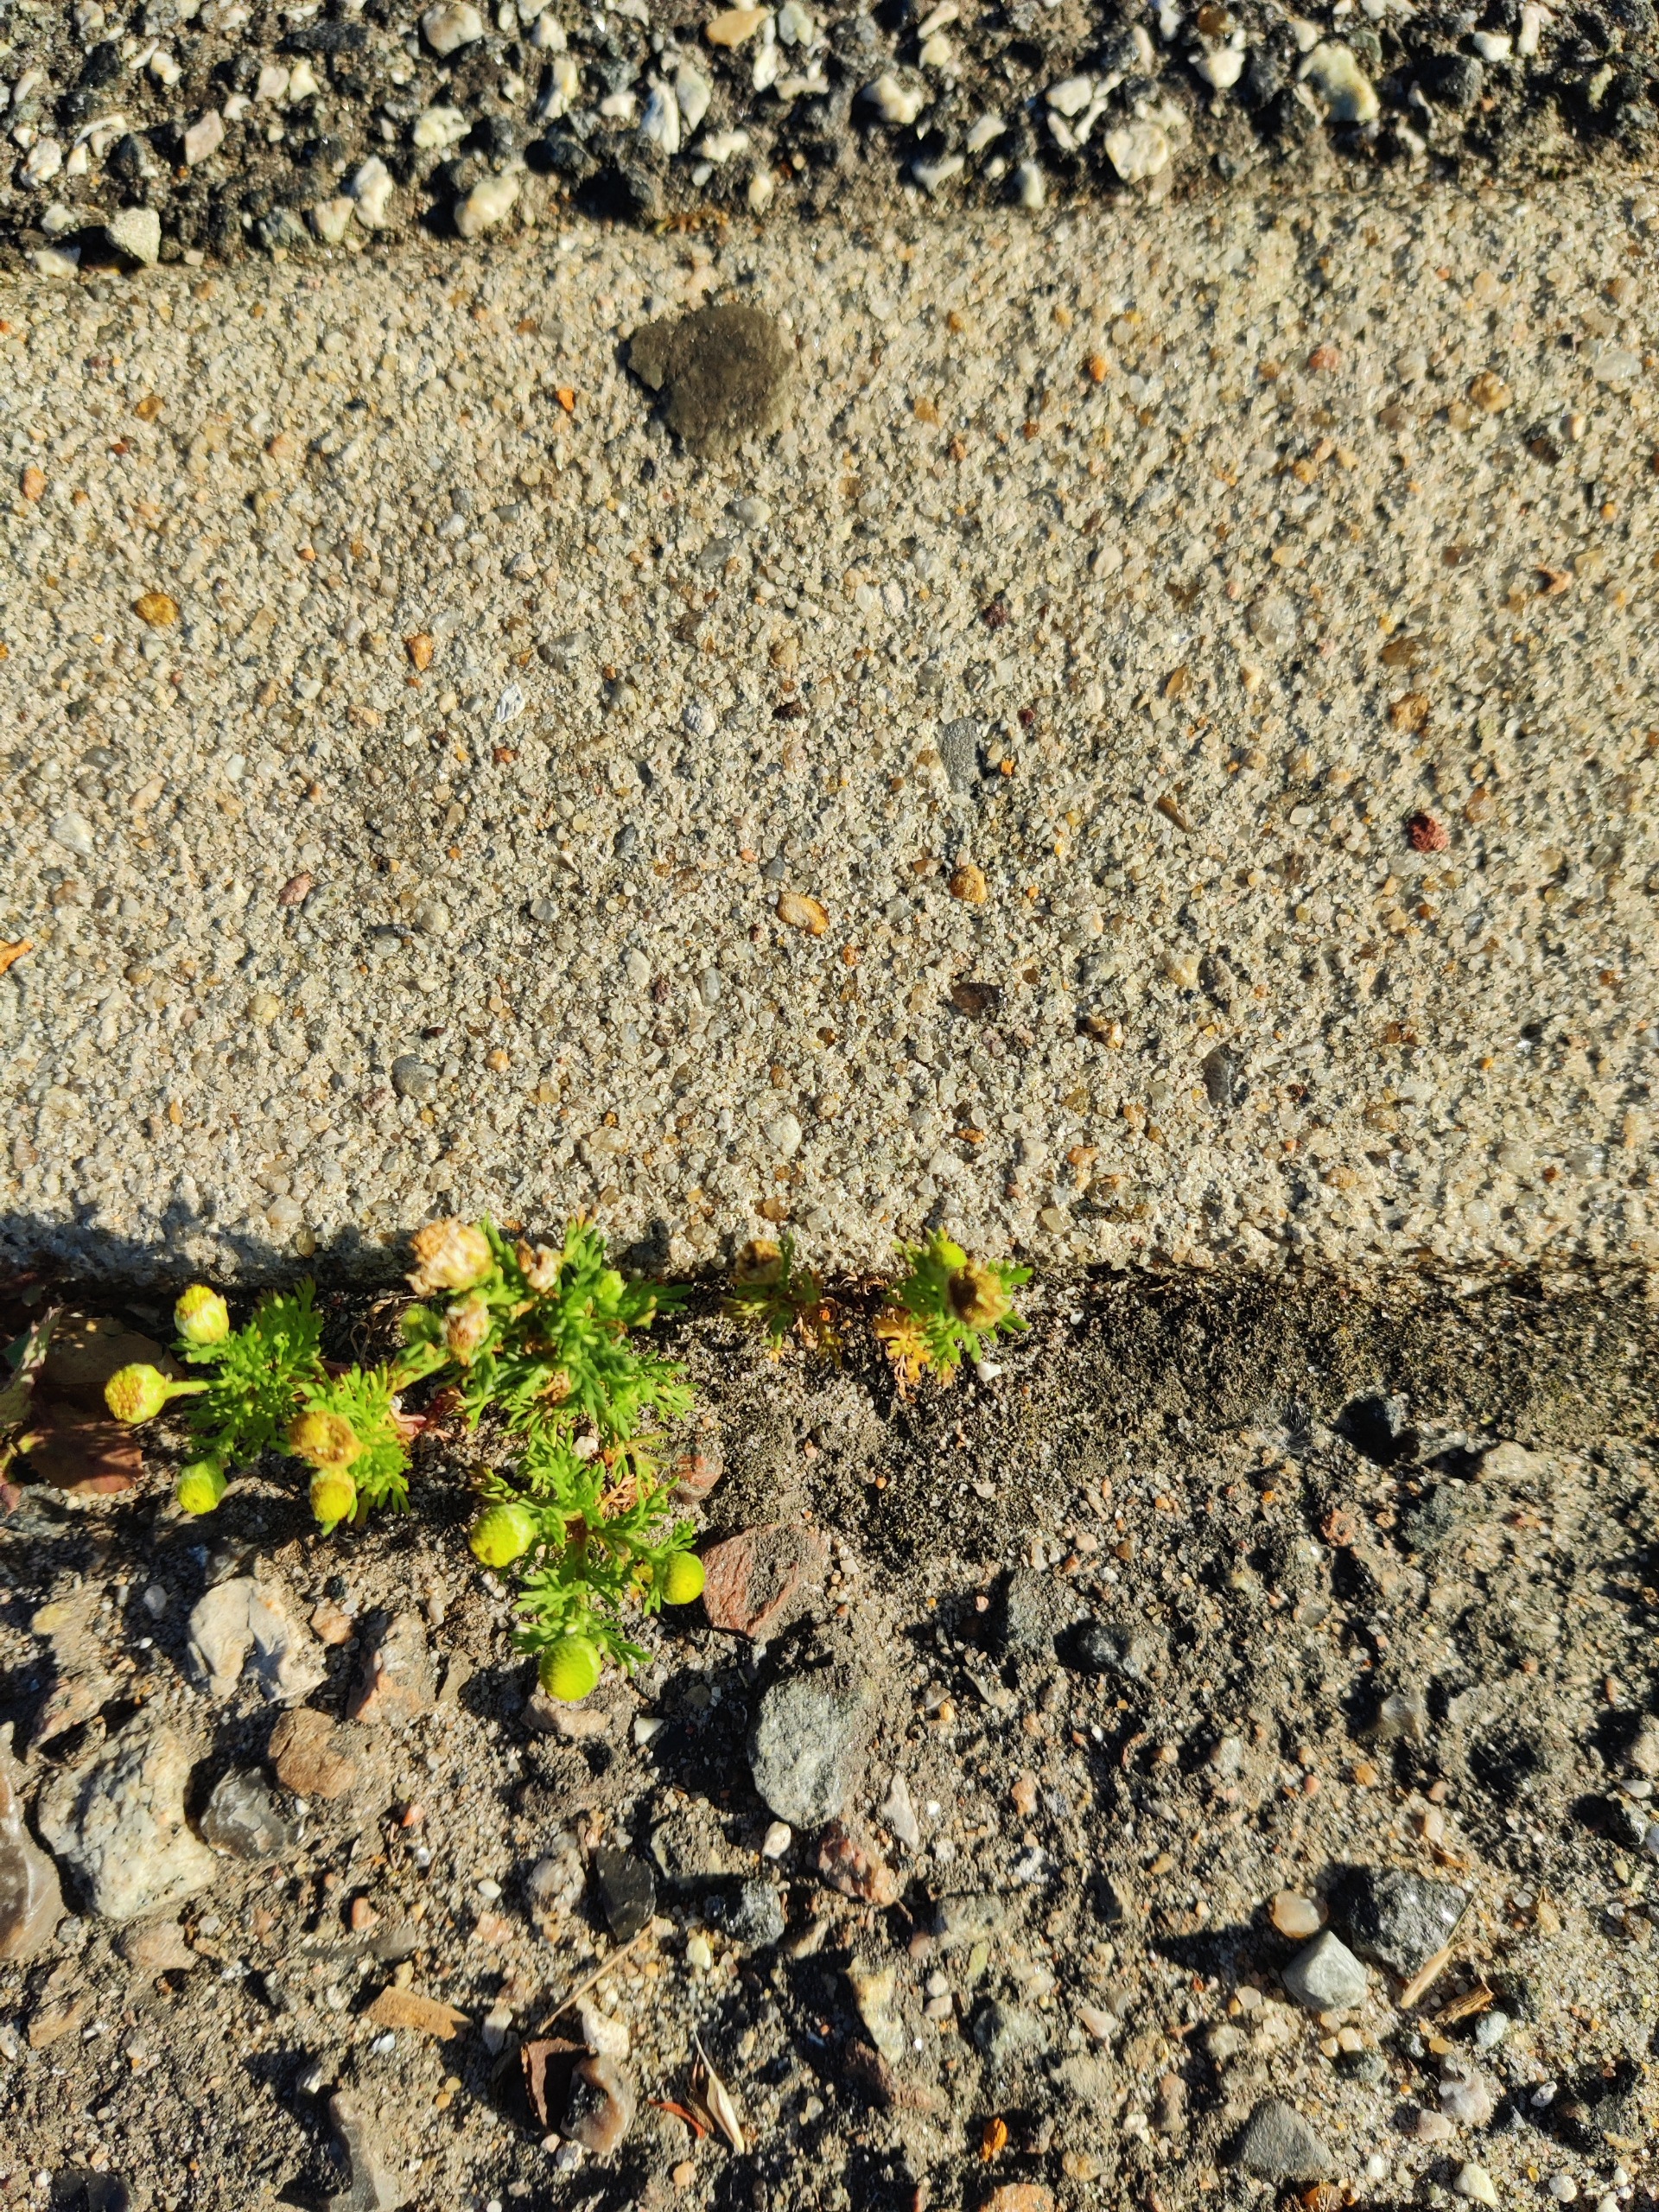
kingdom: Plantae
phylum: Tracheophyta
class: Magnoliopsida
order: Asterales
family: Asteraceae
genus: Matricaria
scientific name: Matricaria discoidea
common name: Skive-kamille
